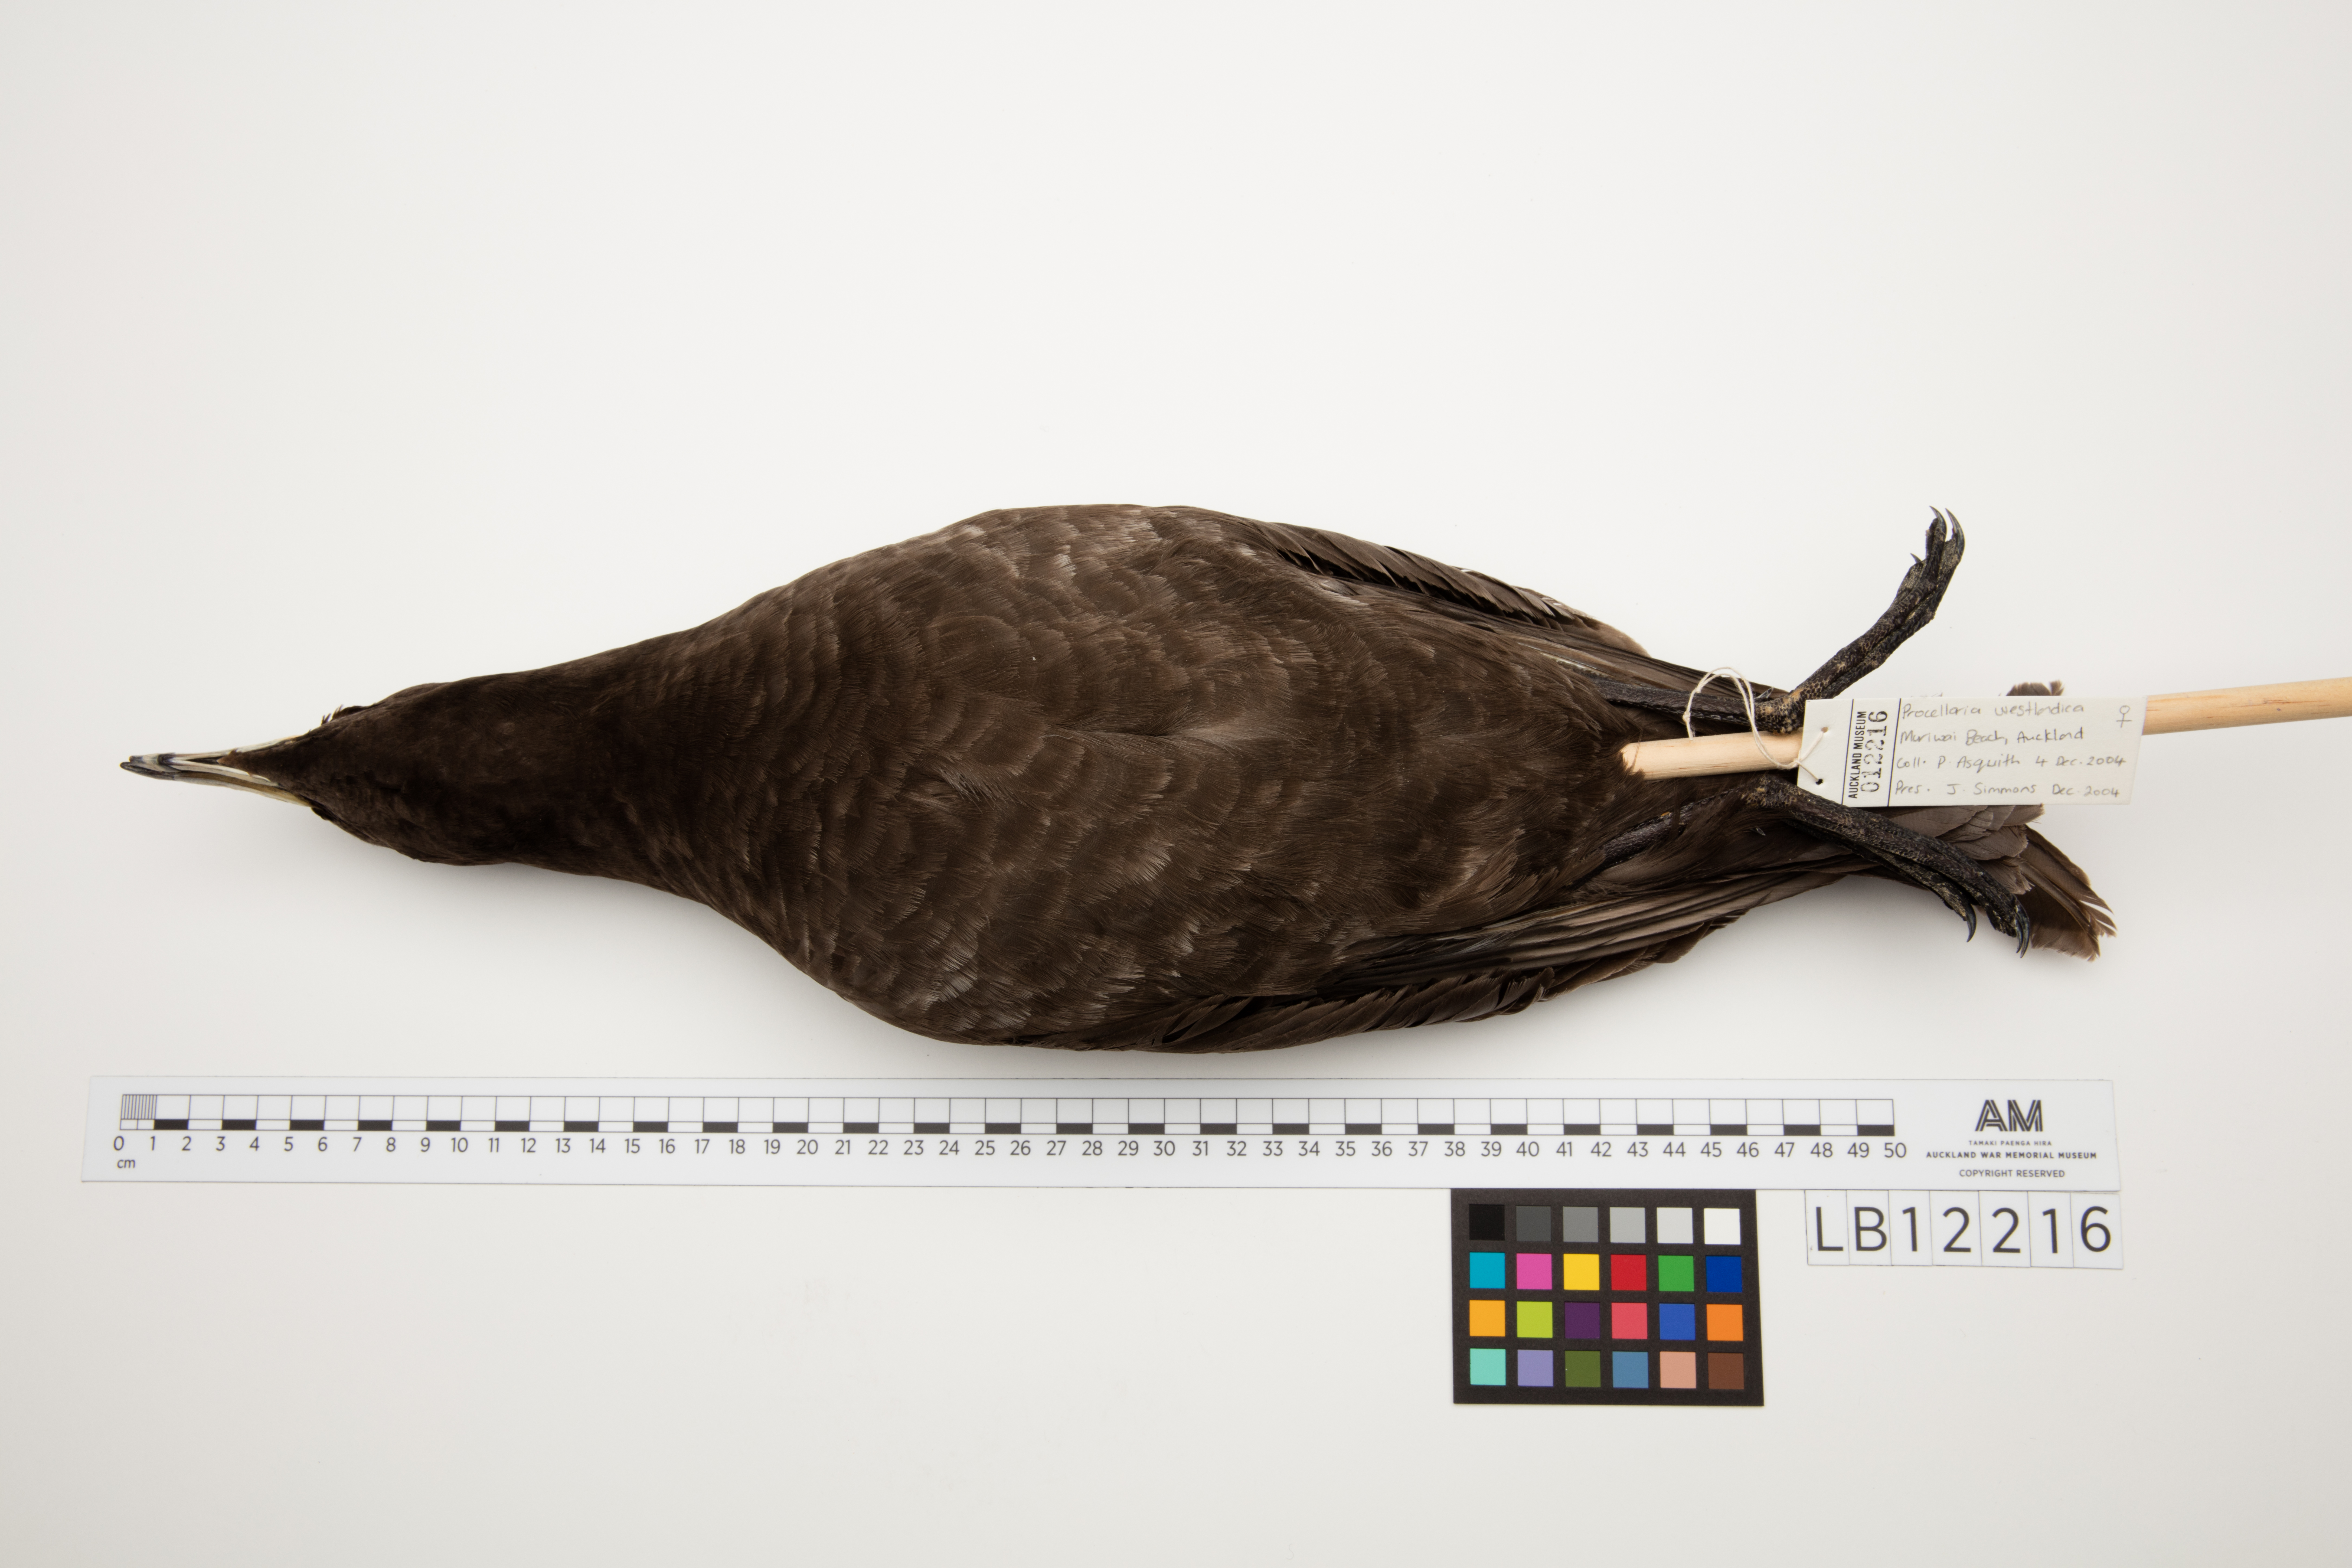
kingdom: Animalia
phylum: Chordata
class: Aves
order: Procellariiformes
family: Procellariidae
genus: Procellaria
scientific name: Procellaria westlandica
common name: Westland petrel
